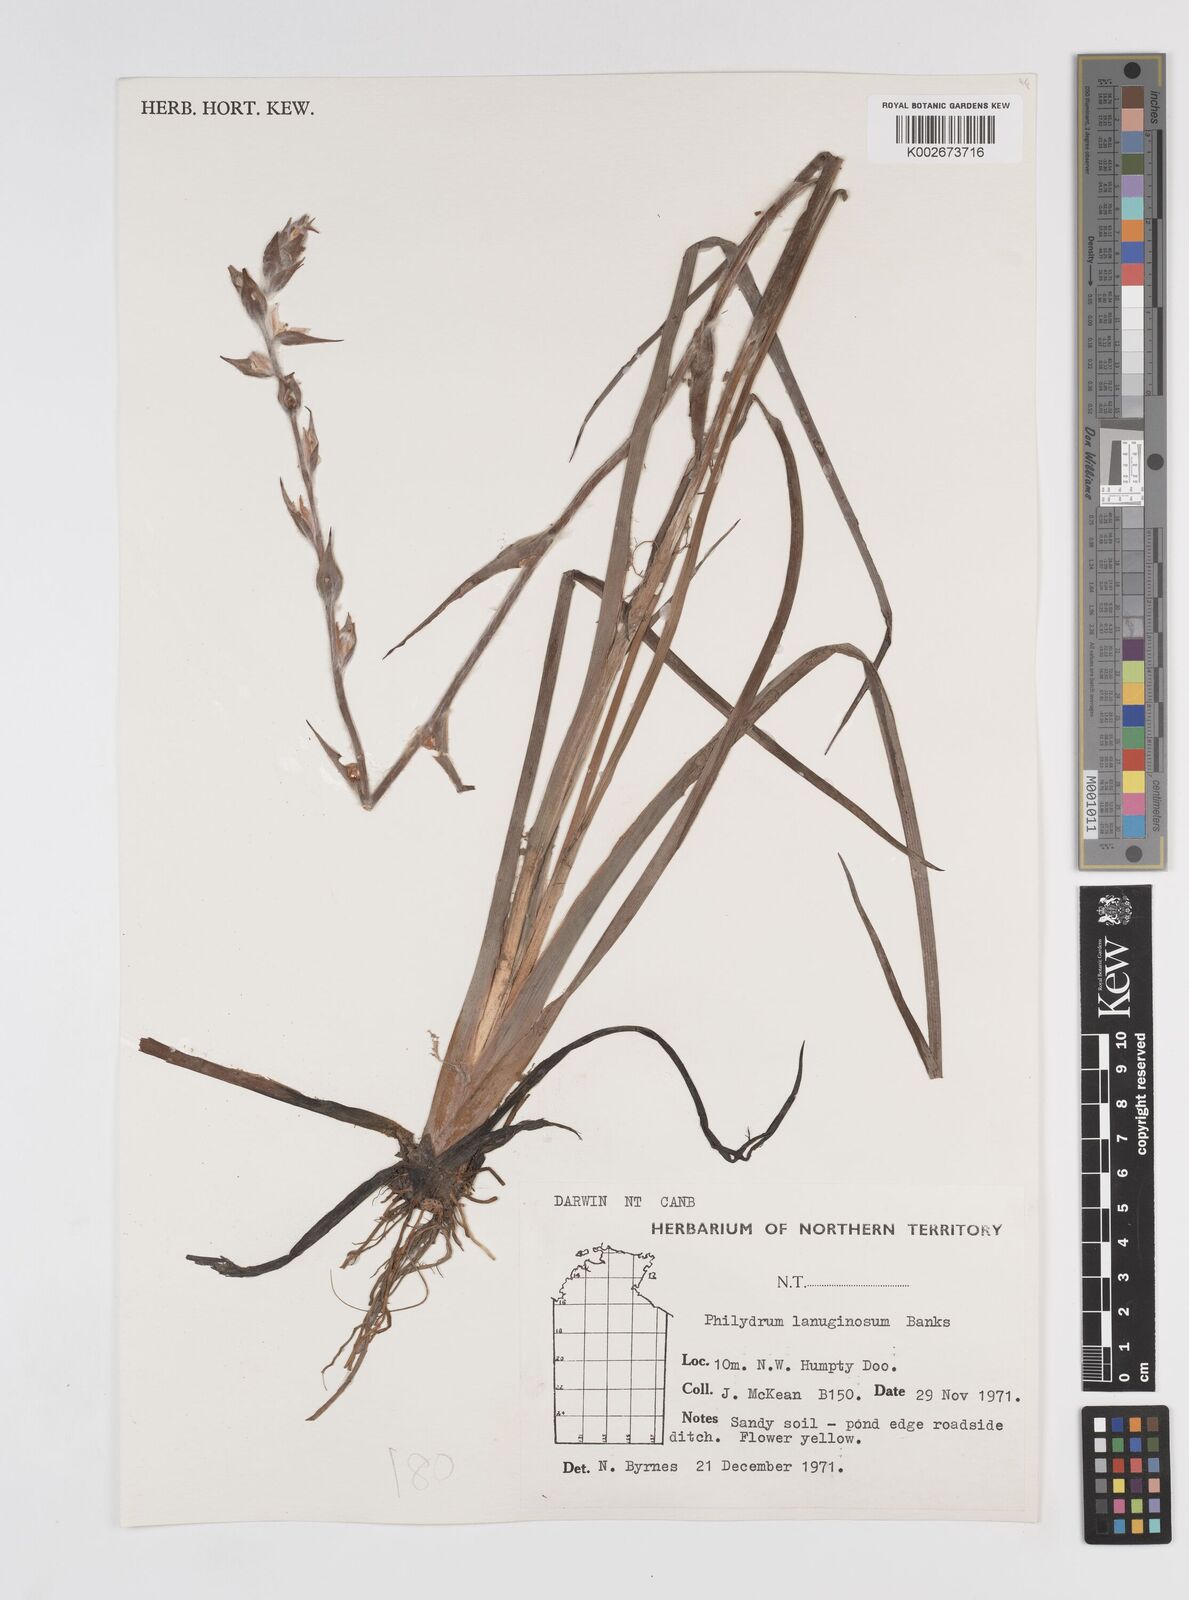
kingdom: Plantae
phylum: Tracheophyta
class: Liliopsida
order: Commelinales
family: Philydraceae
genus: Philydrum
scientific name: Philydrum lanuginosum
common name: Woolly frog's mouth
